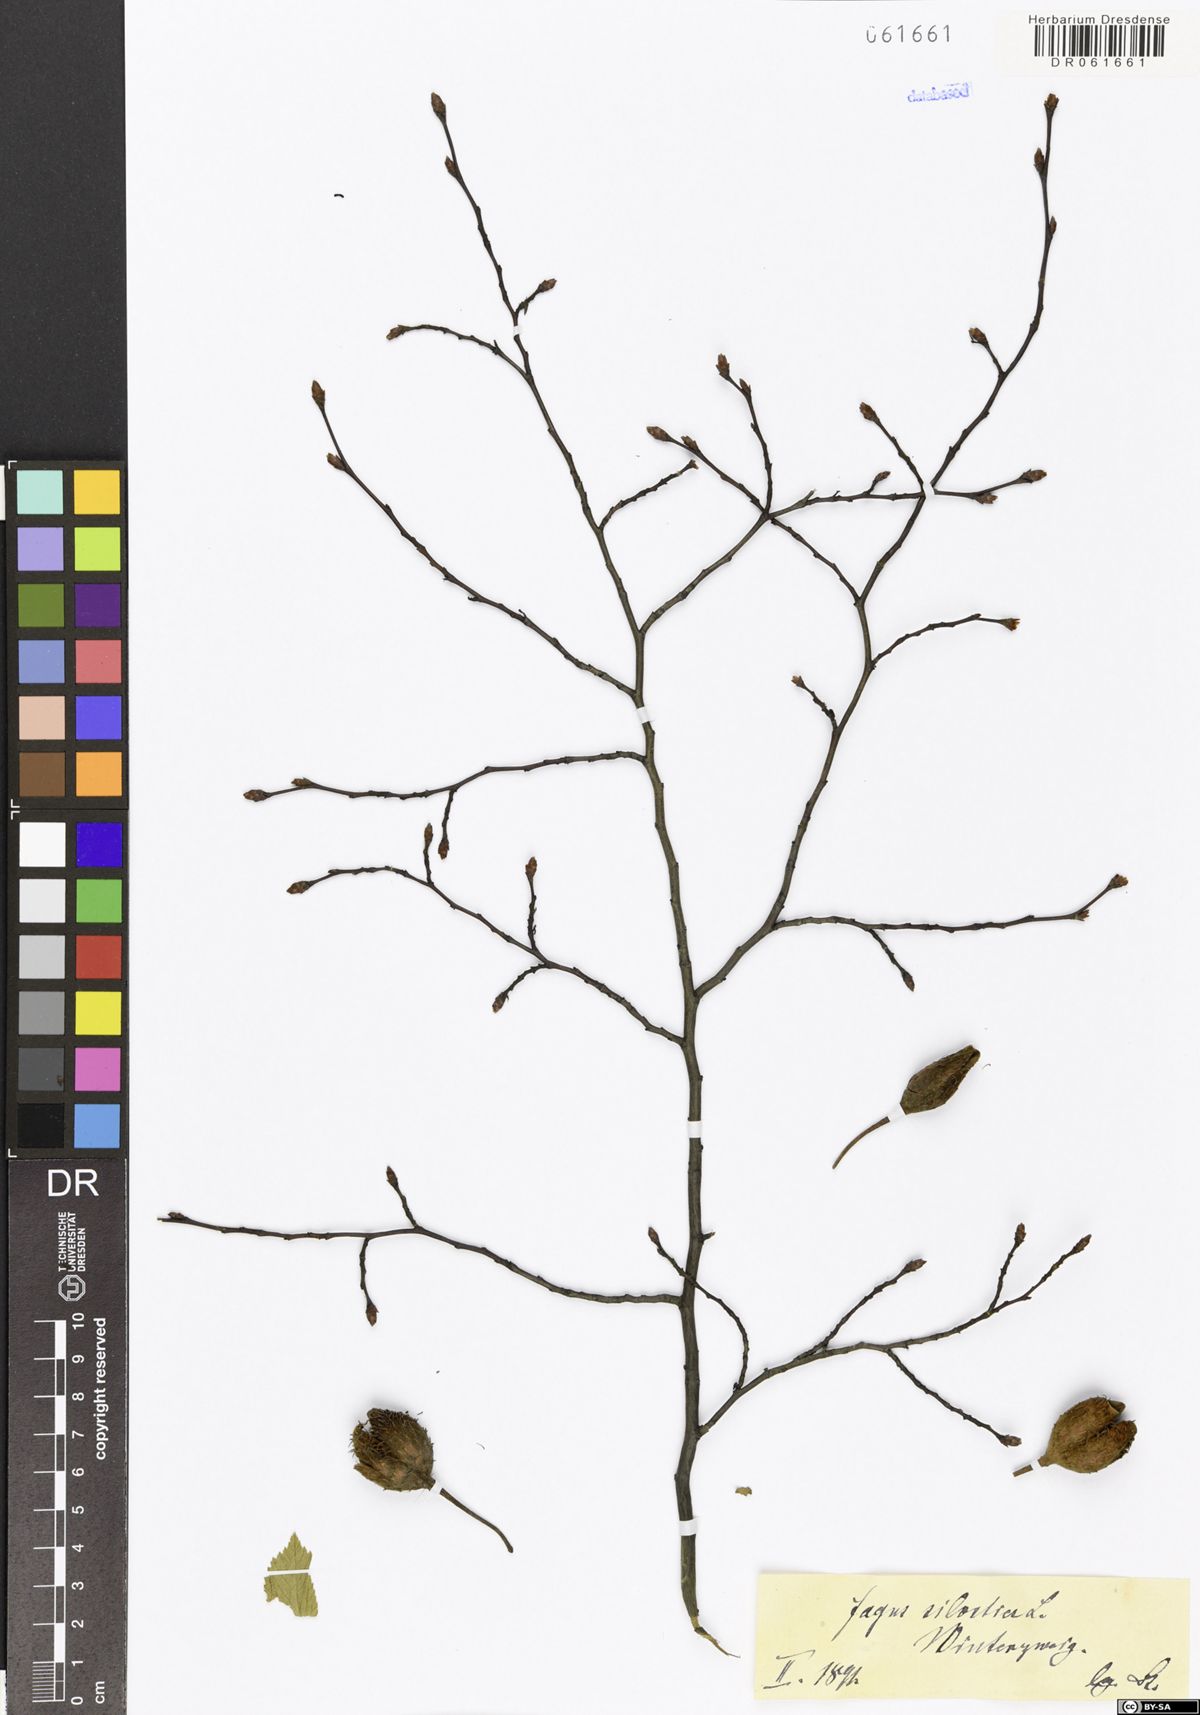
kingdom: Plantae
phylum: Tracheophyta
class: Magnoliopsida
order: Fagales
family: Fagaceae
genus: Fagus
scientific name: Fagus sylvatica
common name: Beech
